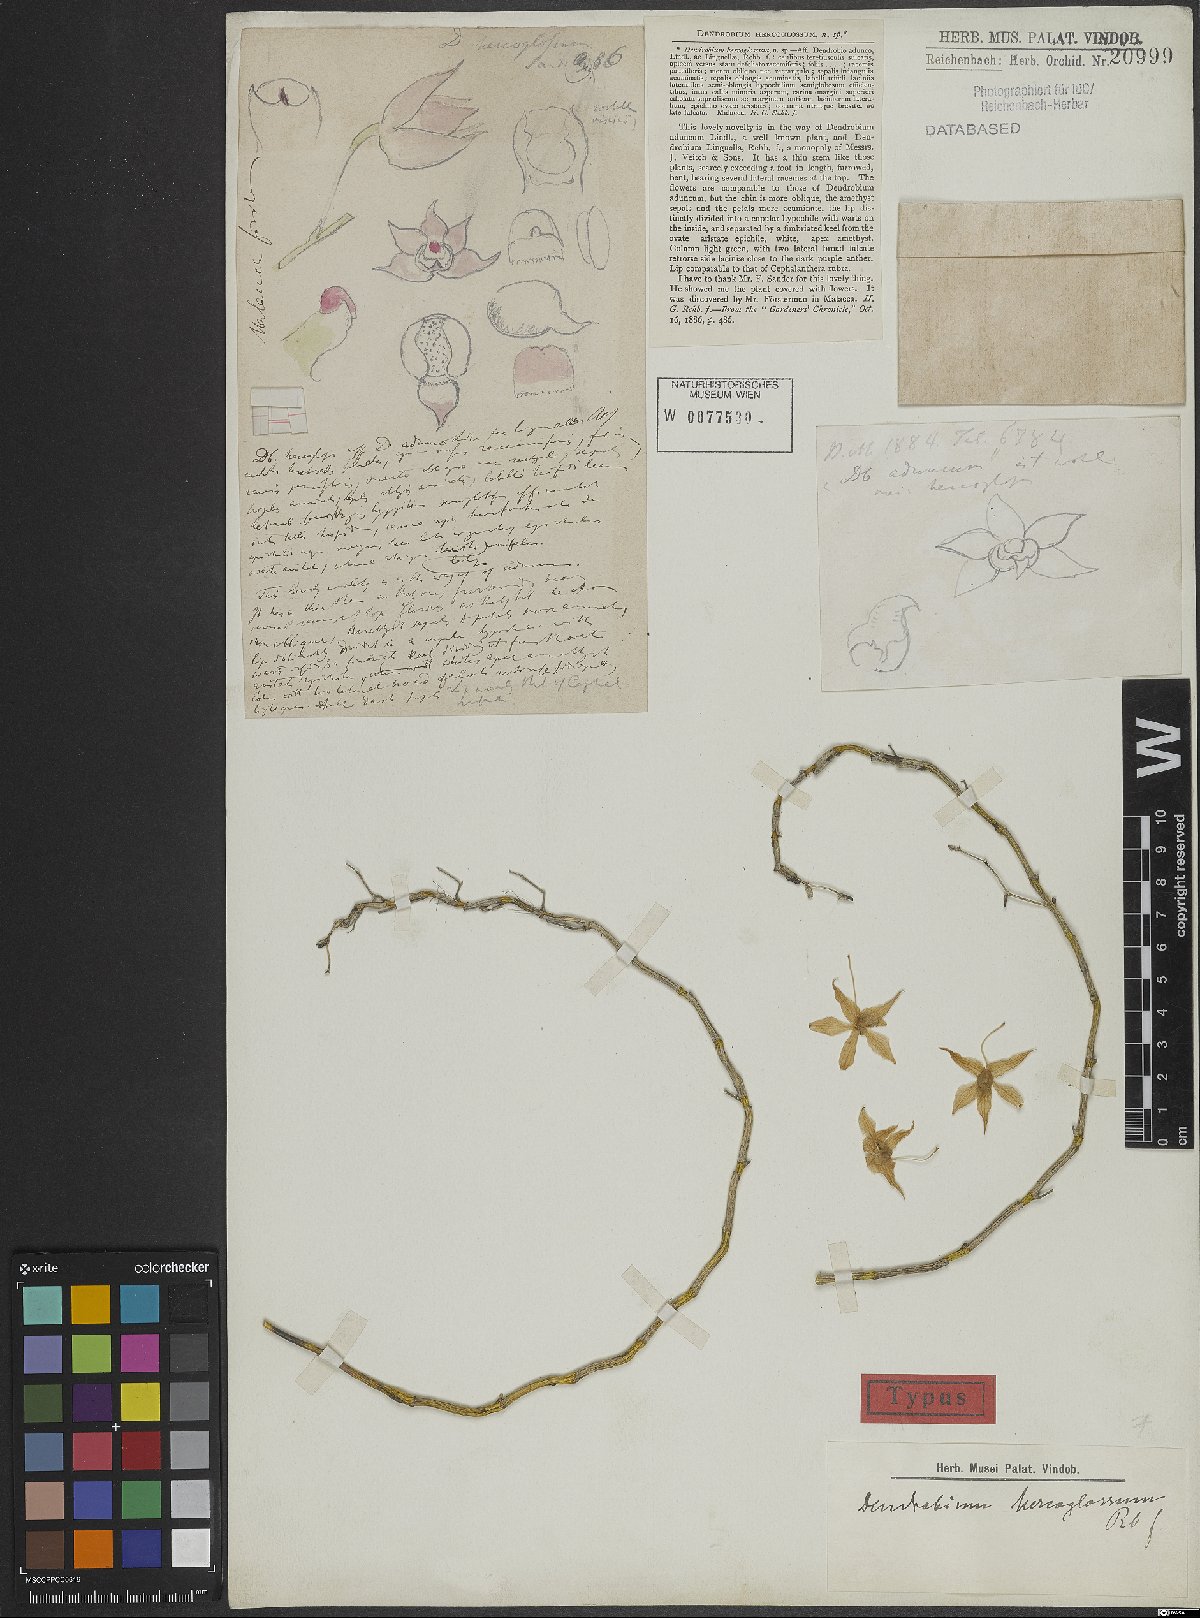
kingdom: Plantae
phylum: Tracheophyta
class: Liliopsida
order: Asparagales
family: Orchidaceae
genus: Dendrobium
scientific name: Dendrobium hercoglossum
